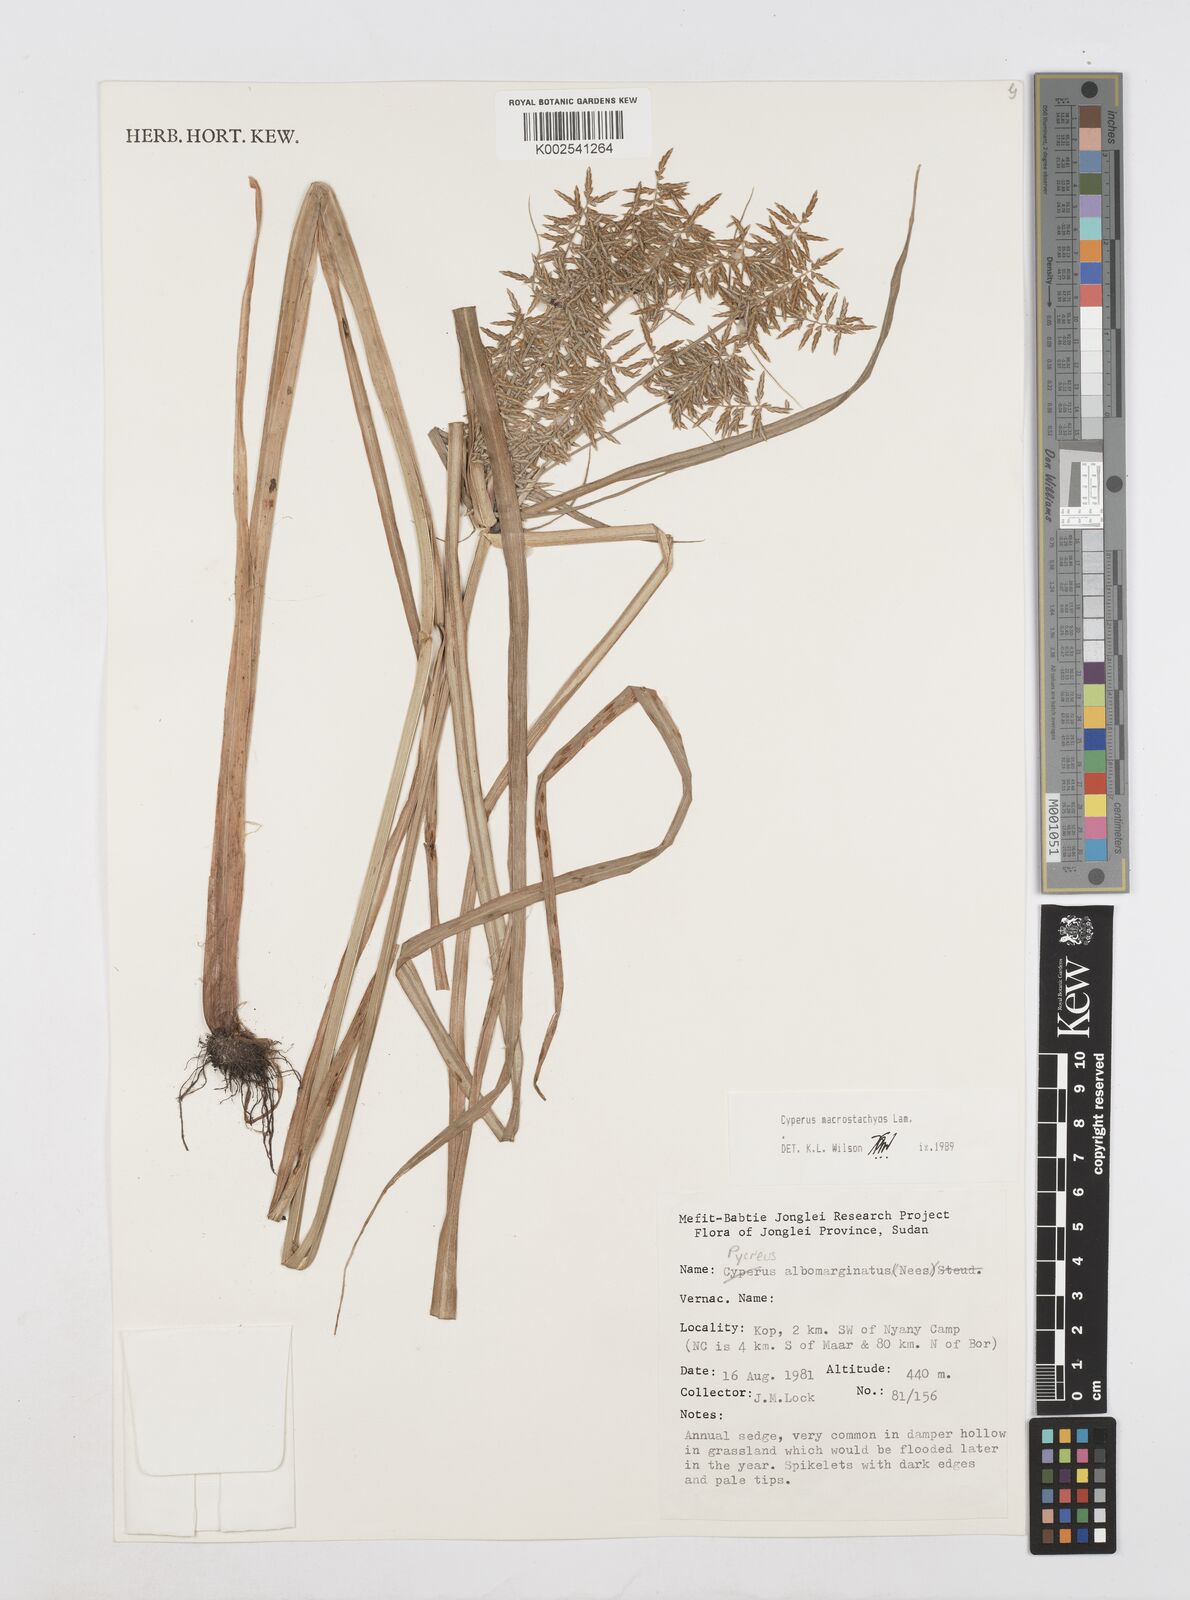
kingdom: Plantae
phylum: Tracheophyta
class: Liliopsida
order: Poales
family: Cyperaceae
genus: Cyperus
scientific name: Cyperus macrostachyos
